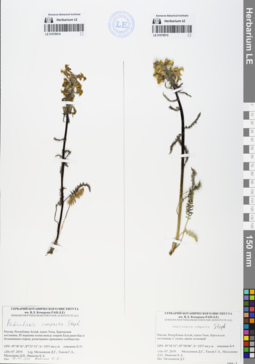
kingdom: Plantae
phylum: Tracheophyta
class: Magnoliopsida
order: Lamiales
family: Orobanchaceae
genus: Pedicularis
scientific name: Pedicularis compacta
